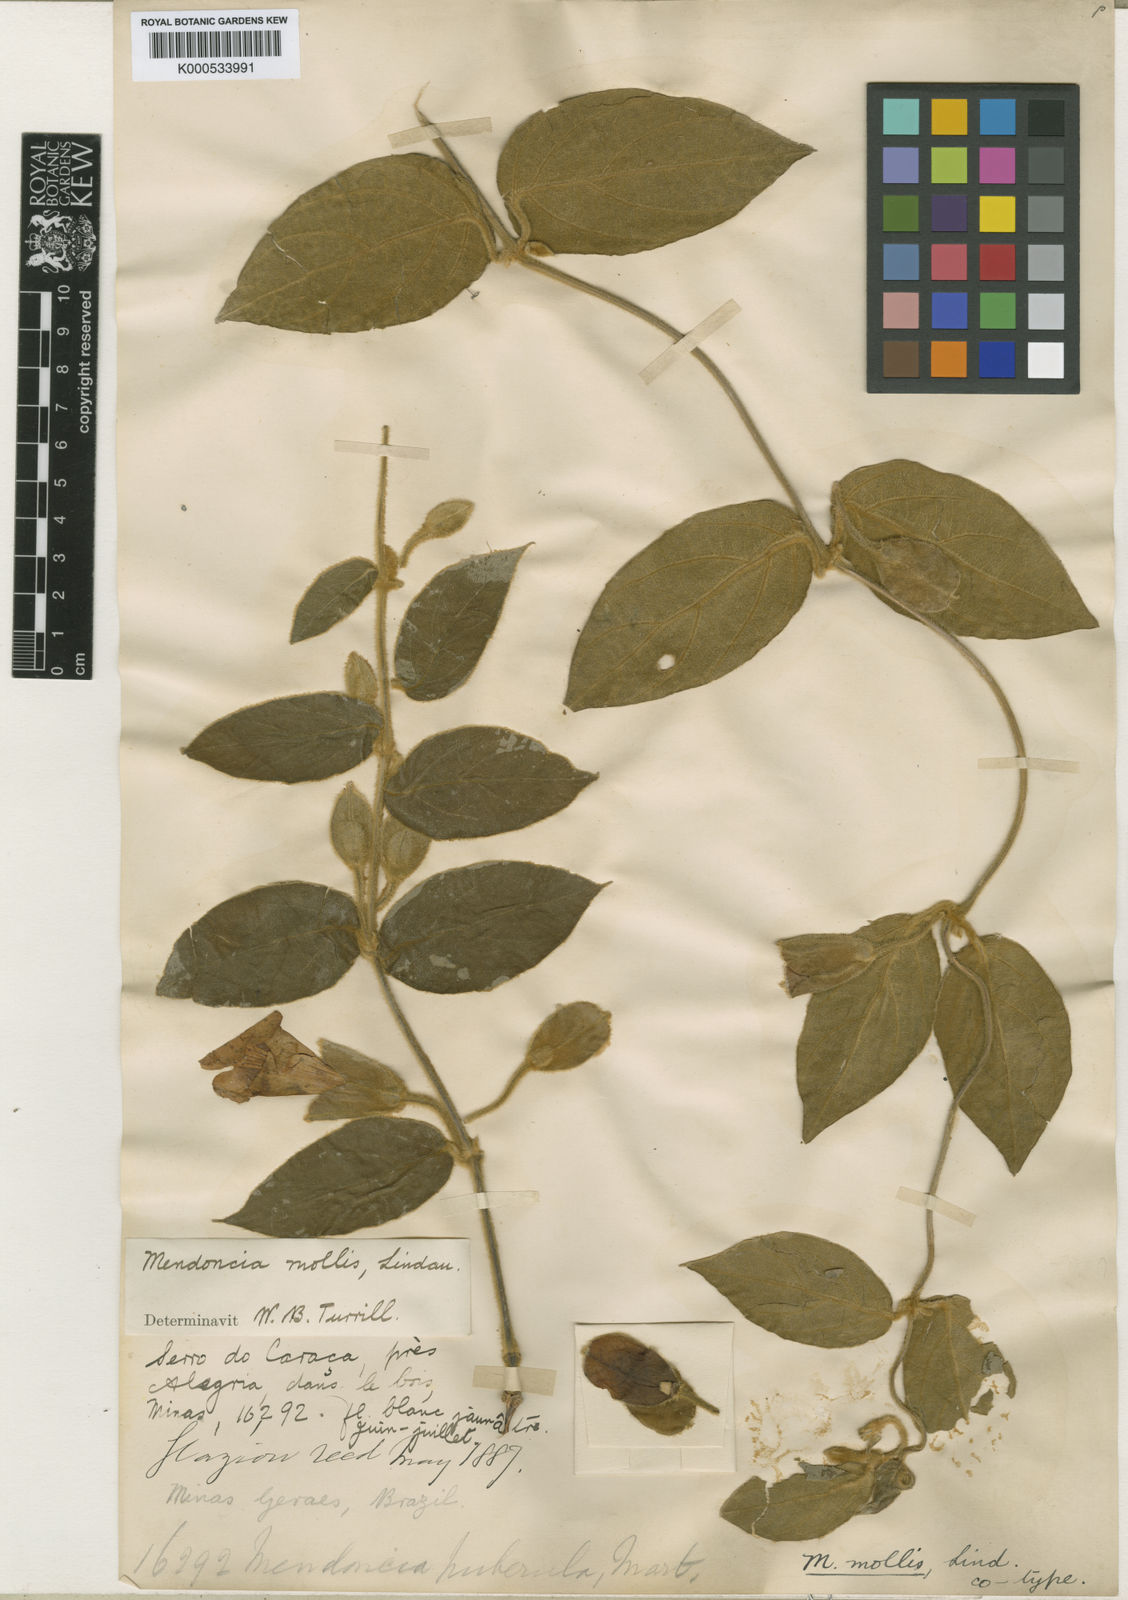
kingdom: Plantae
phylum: Tracheophyta
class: Magnoliopsida
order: Lamiales
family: Acanthaceae
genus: Mendoncia
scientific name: Mendoncia mollis
